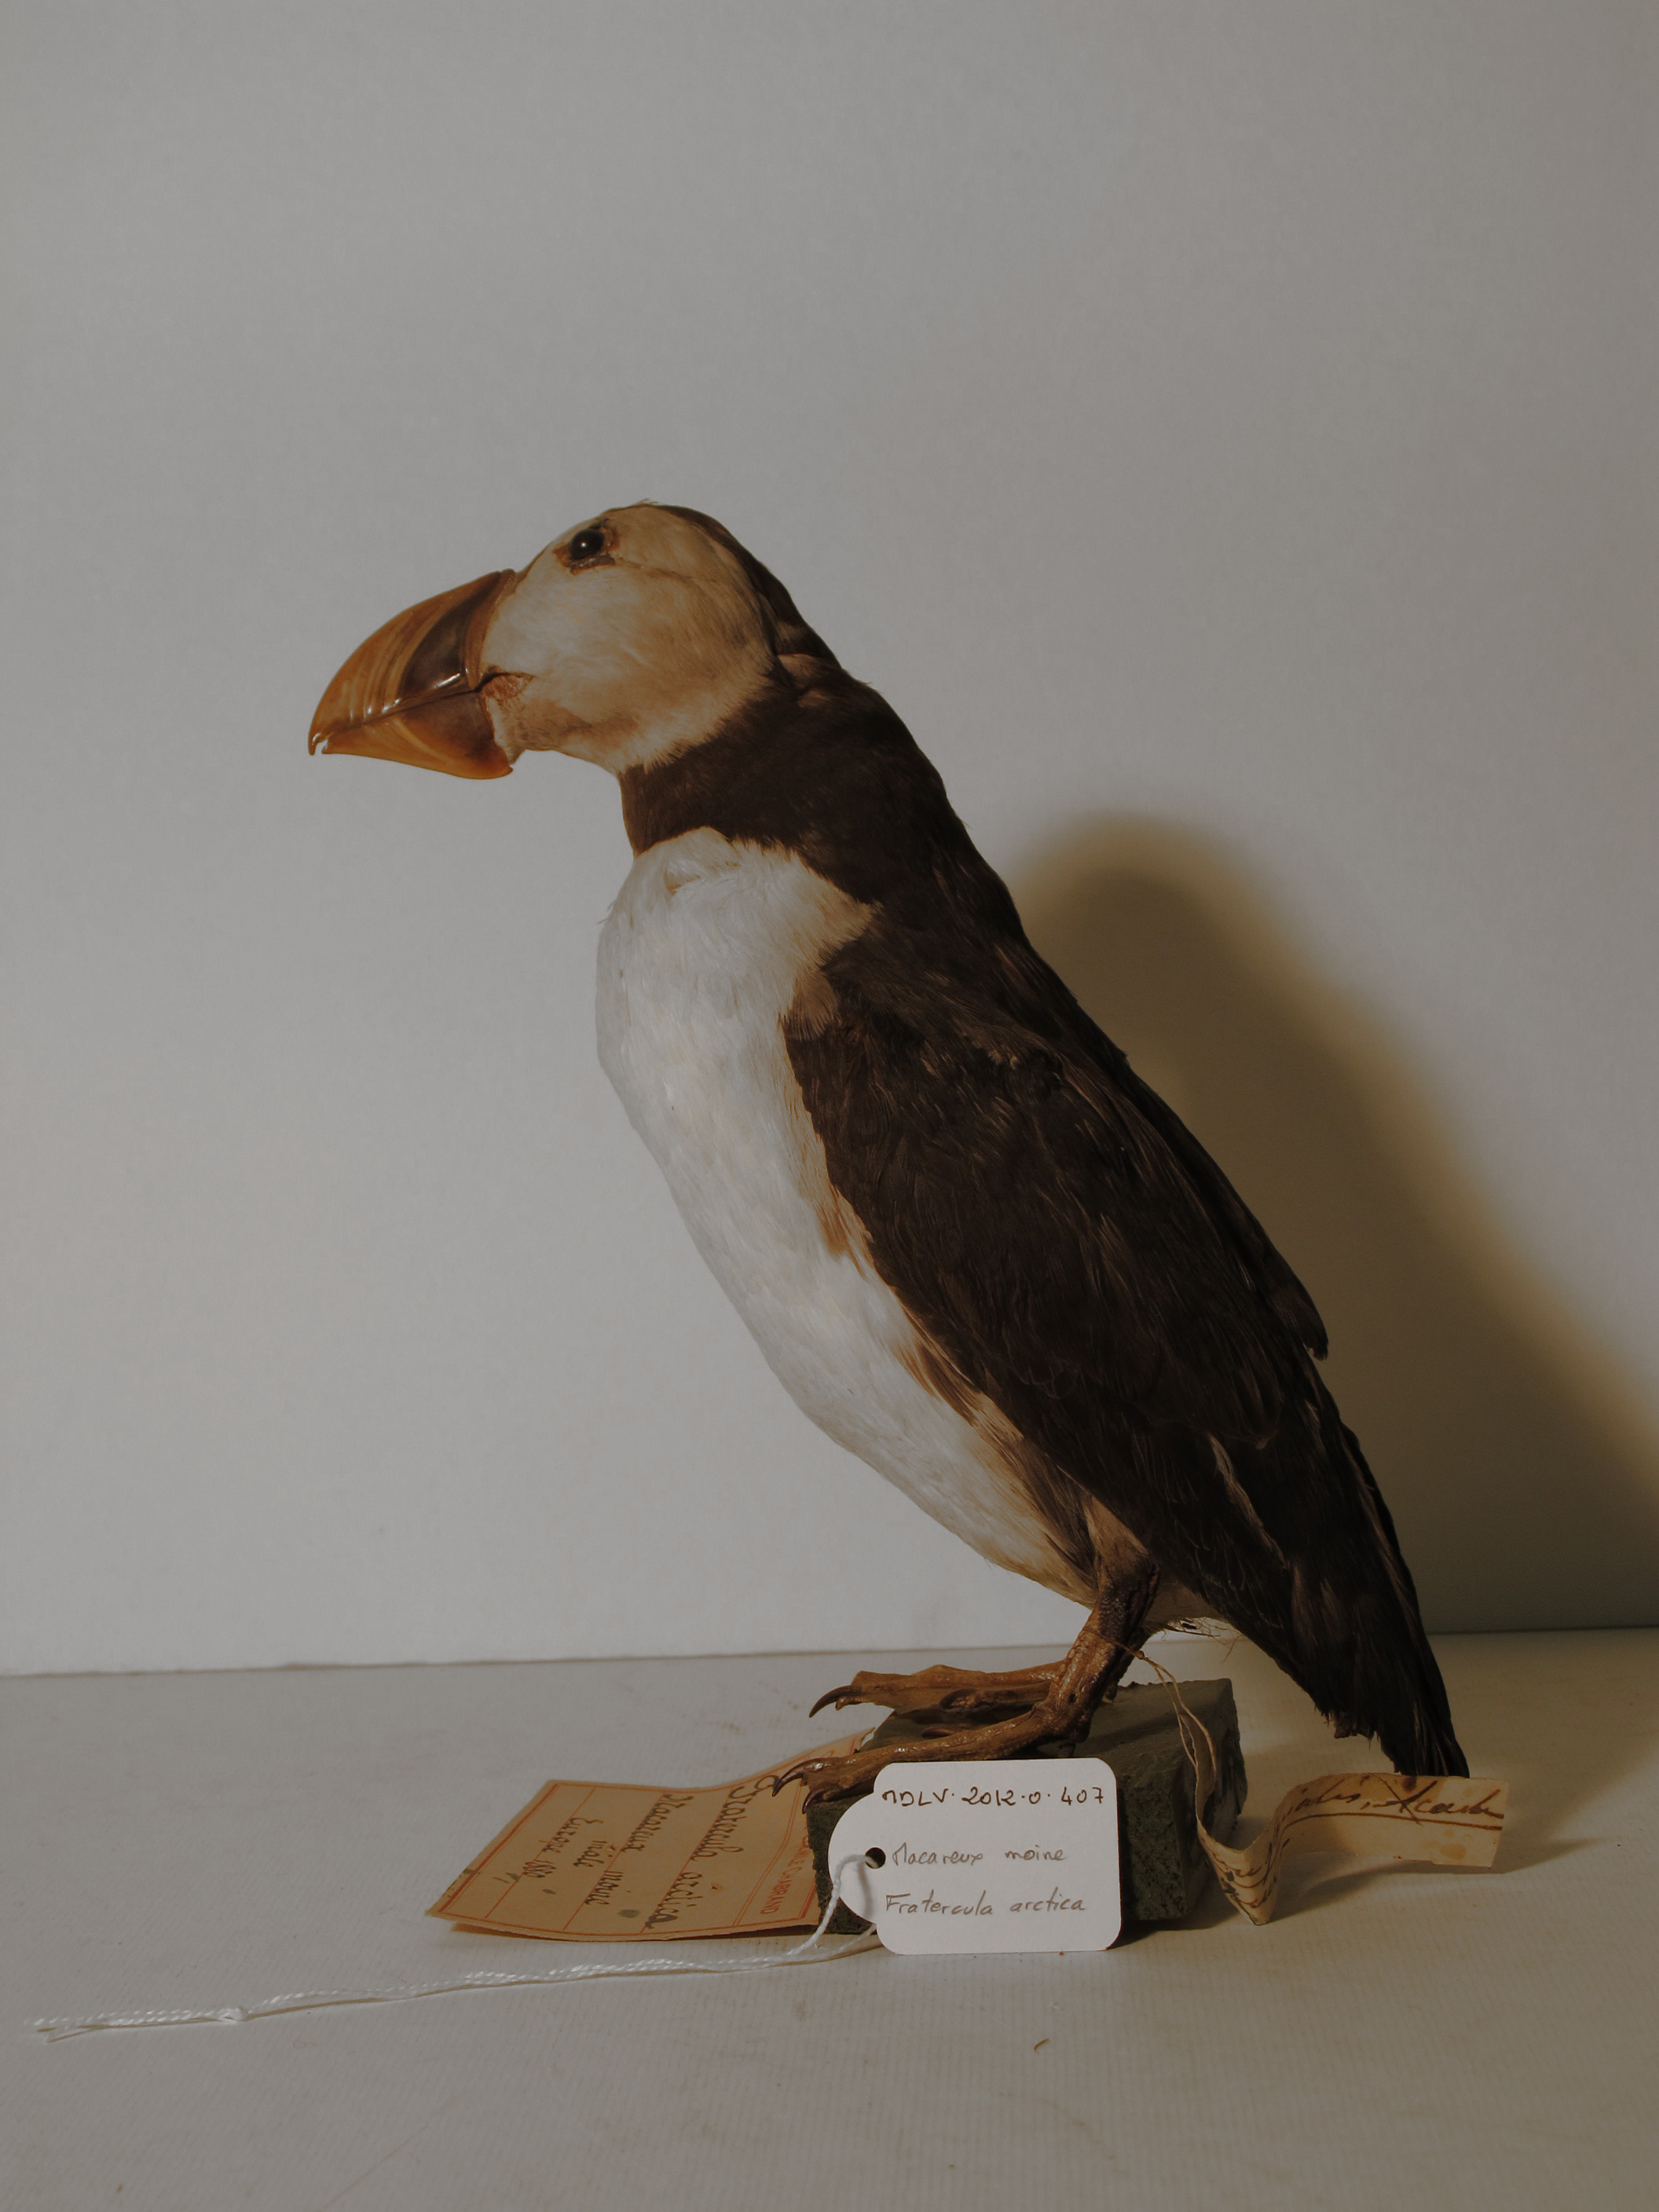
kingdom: Animalia
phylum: Chordata
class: Aves
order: Charadriiformes
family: Alcidae
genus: Fratercula
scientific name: Fratercula arctica
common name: Atlantic Puffin
